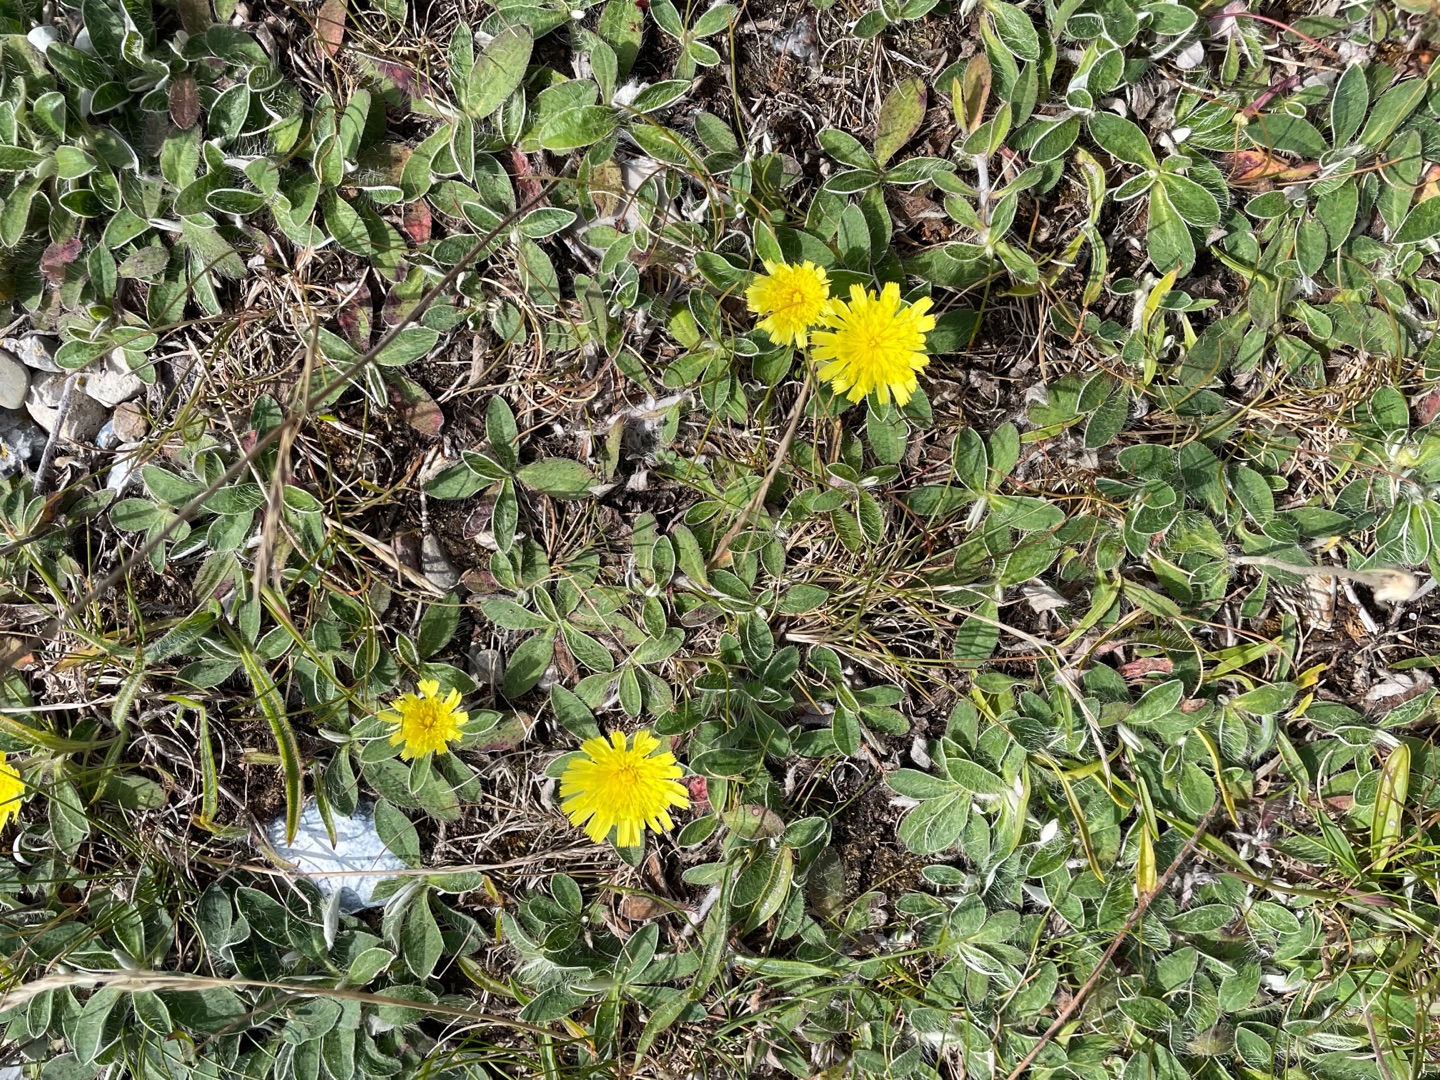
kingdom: Plantae
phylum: Tracheophyta
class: Magnoliopsida
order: Asterales
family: Asteraceae
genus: Pilosella
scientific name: Pilosella officinarum
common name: Håret høgeurt
